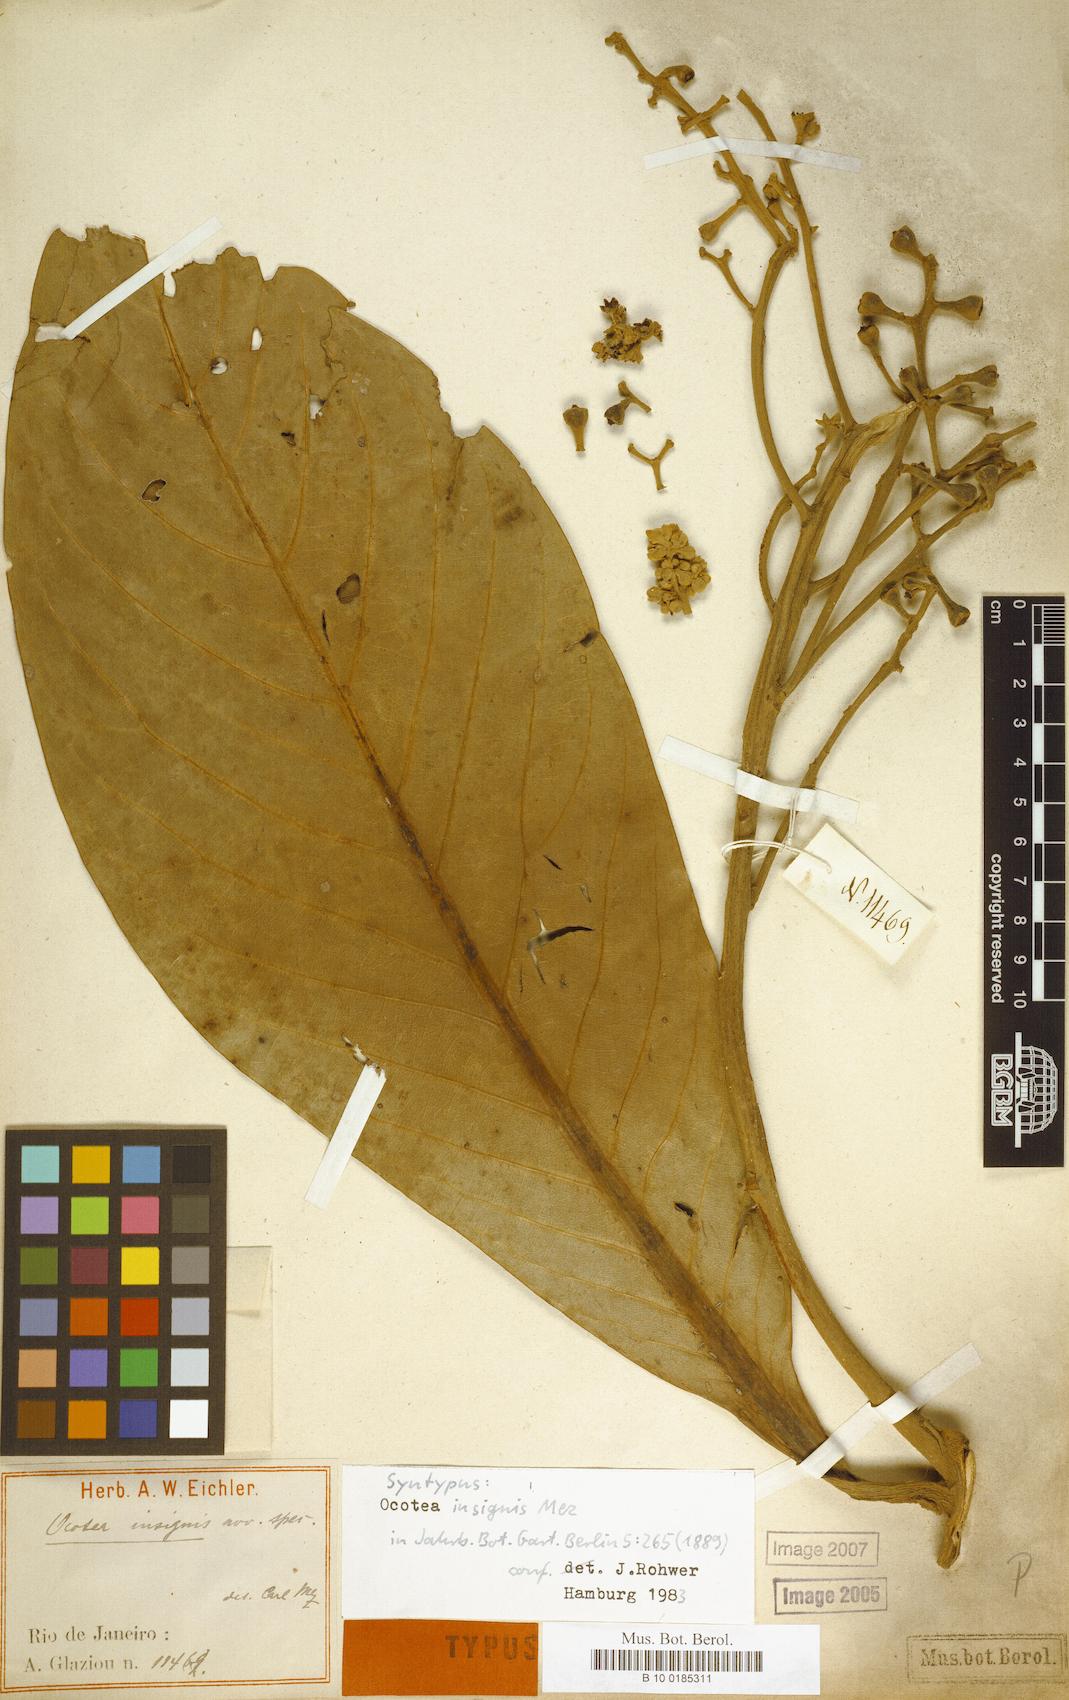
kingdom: Plantae
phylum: Tracheophyta
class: Magnoliopsida
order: Laurales
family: Lauraceae
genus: Ocotea
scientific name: Ocotea insignis
